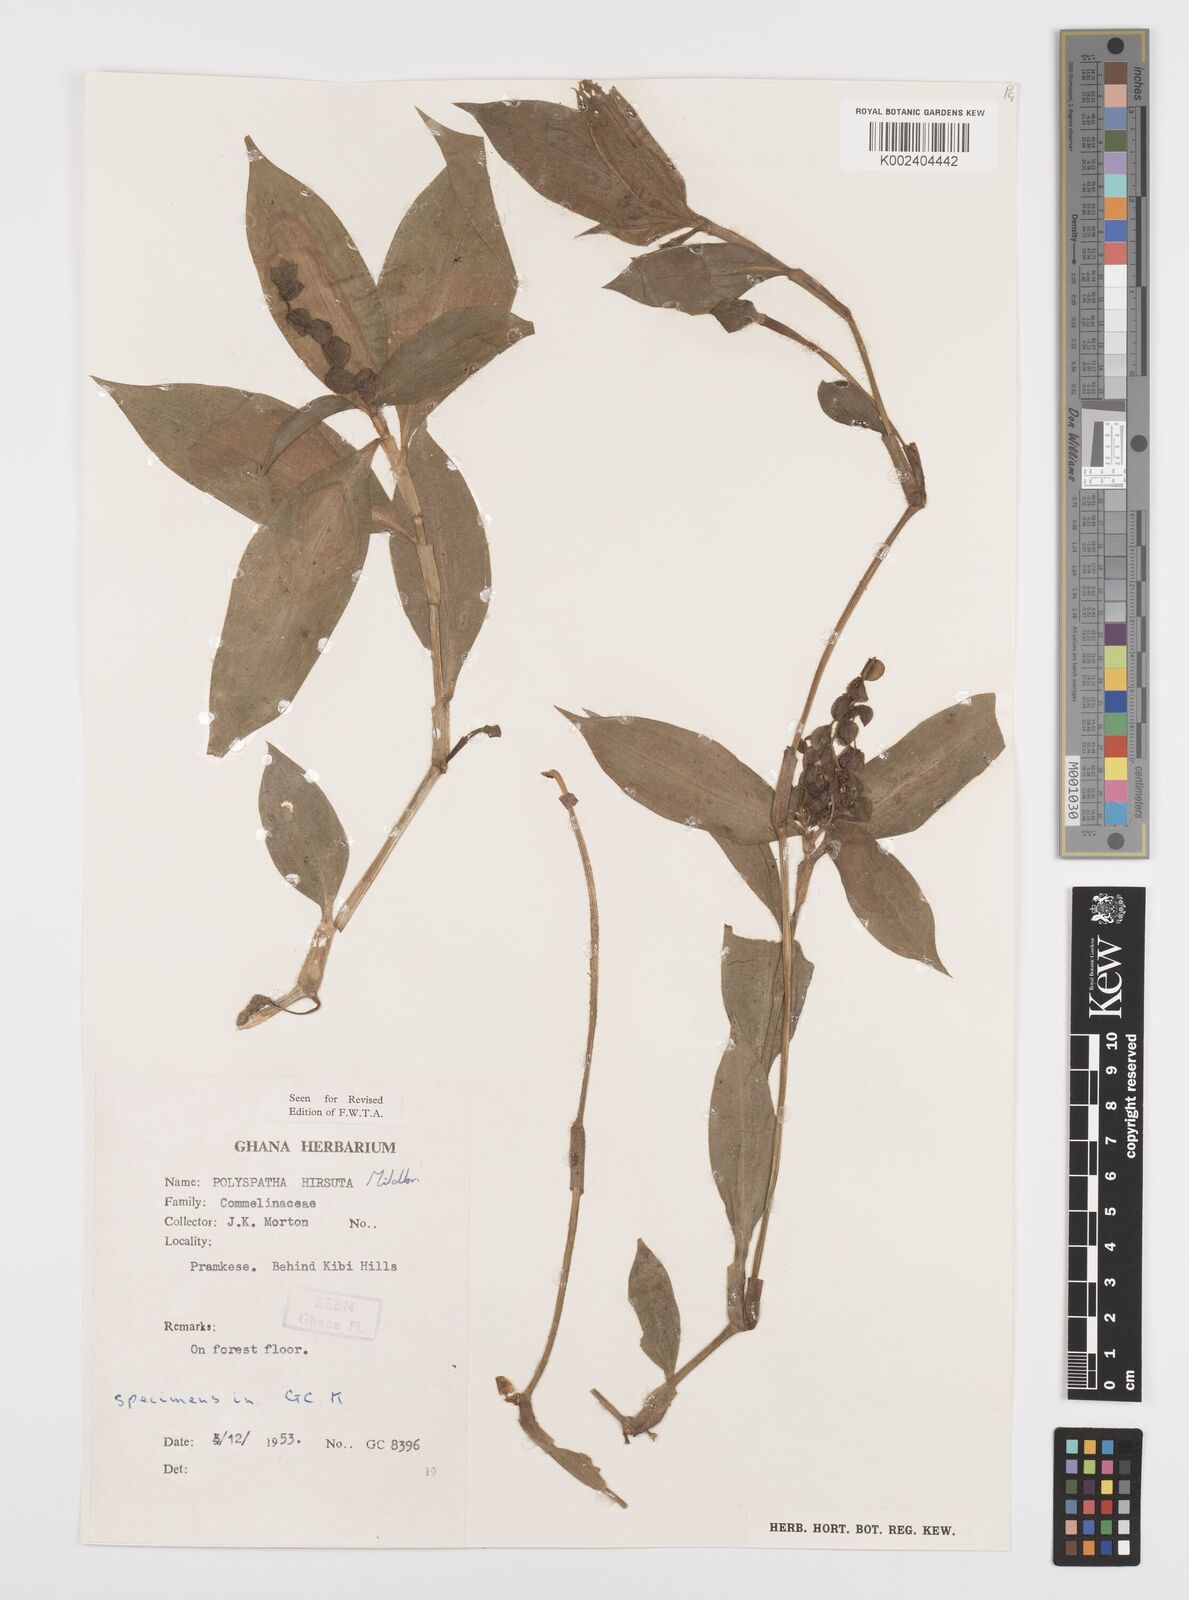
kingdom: Plantae
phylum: Tracheophyta
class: Liliopsida
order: Commelinales
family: Commelinaceae
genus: Polyspatha
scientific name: Polyspatha hirsuta
